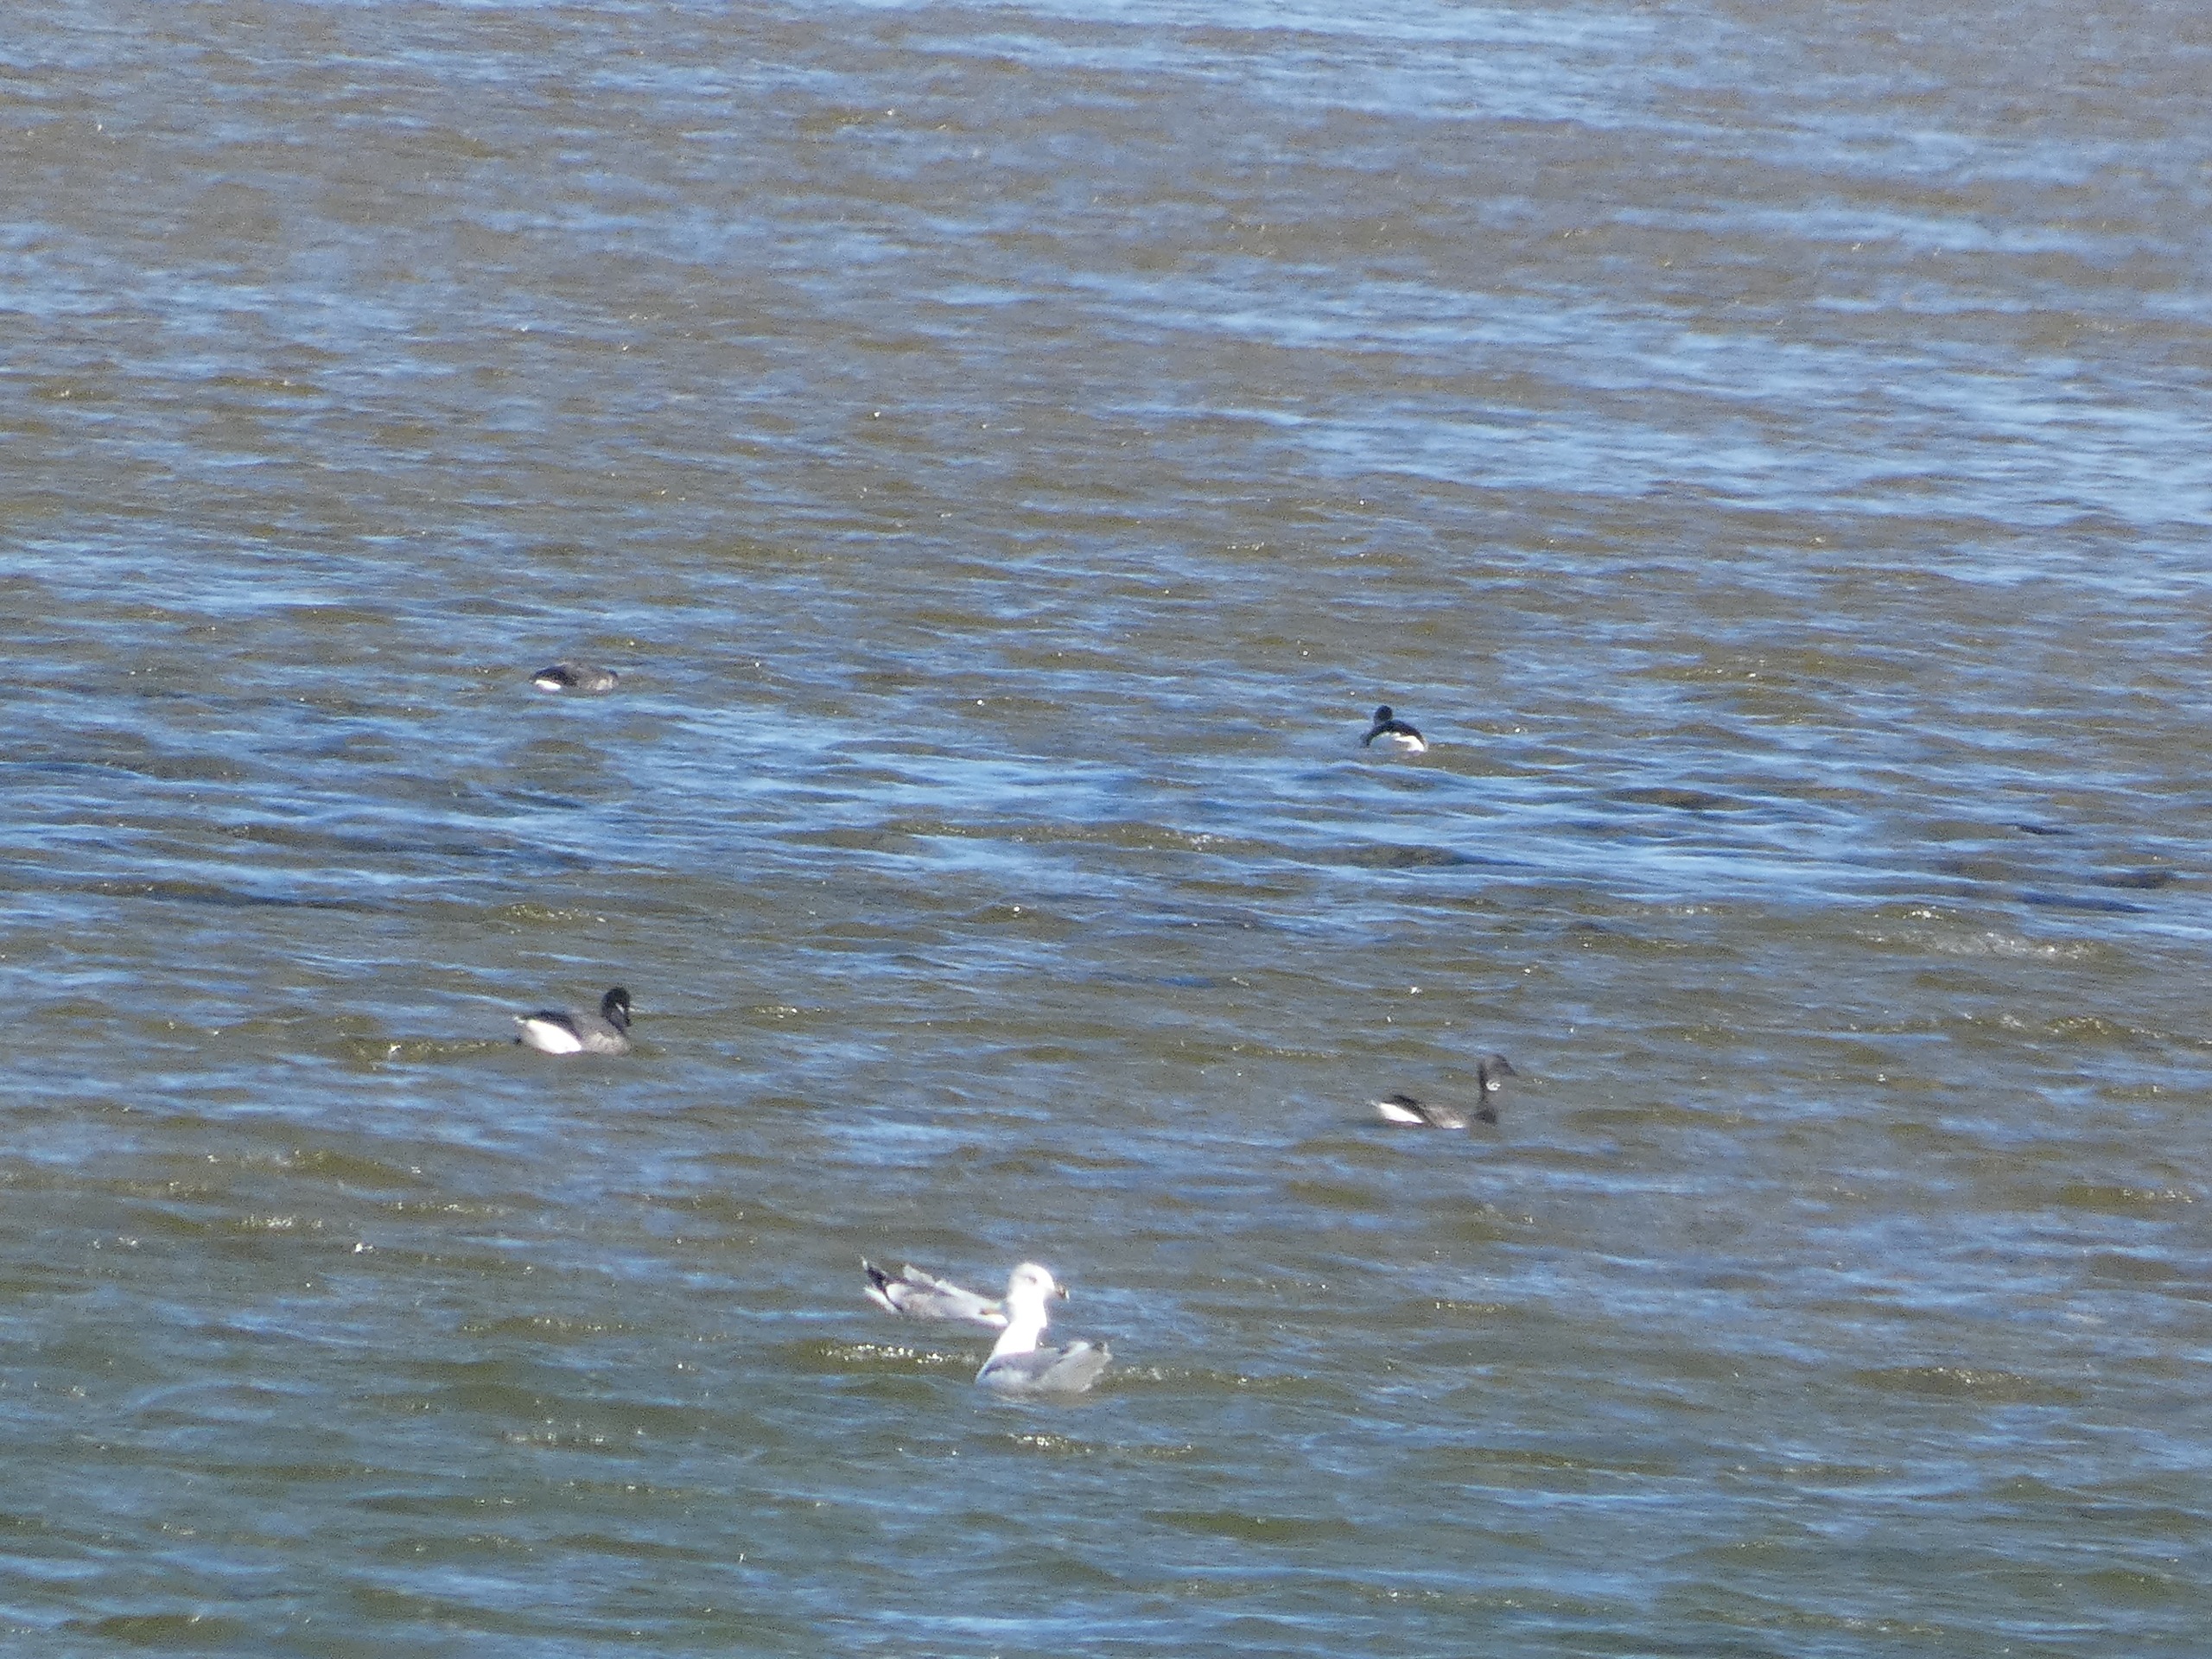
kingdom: Animalia
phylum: Chordata
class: Aves
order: Anseriformes
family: Anatidae
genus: Branta
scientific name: Branta bernicla
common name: Knortegås
